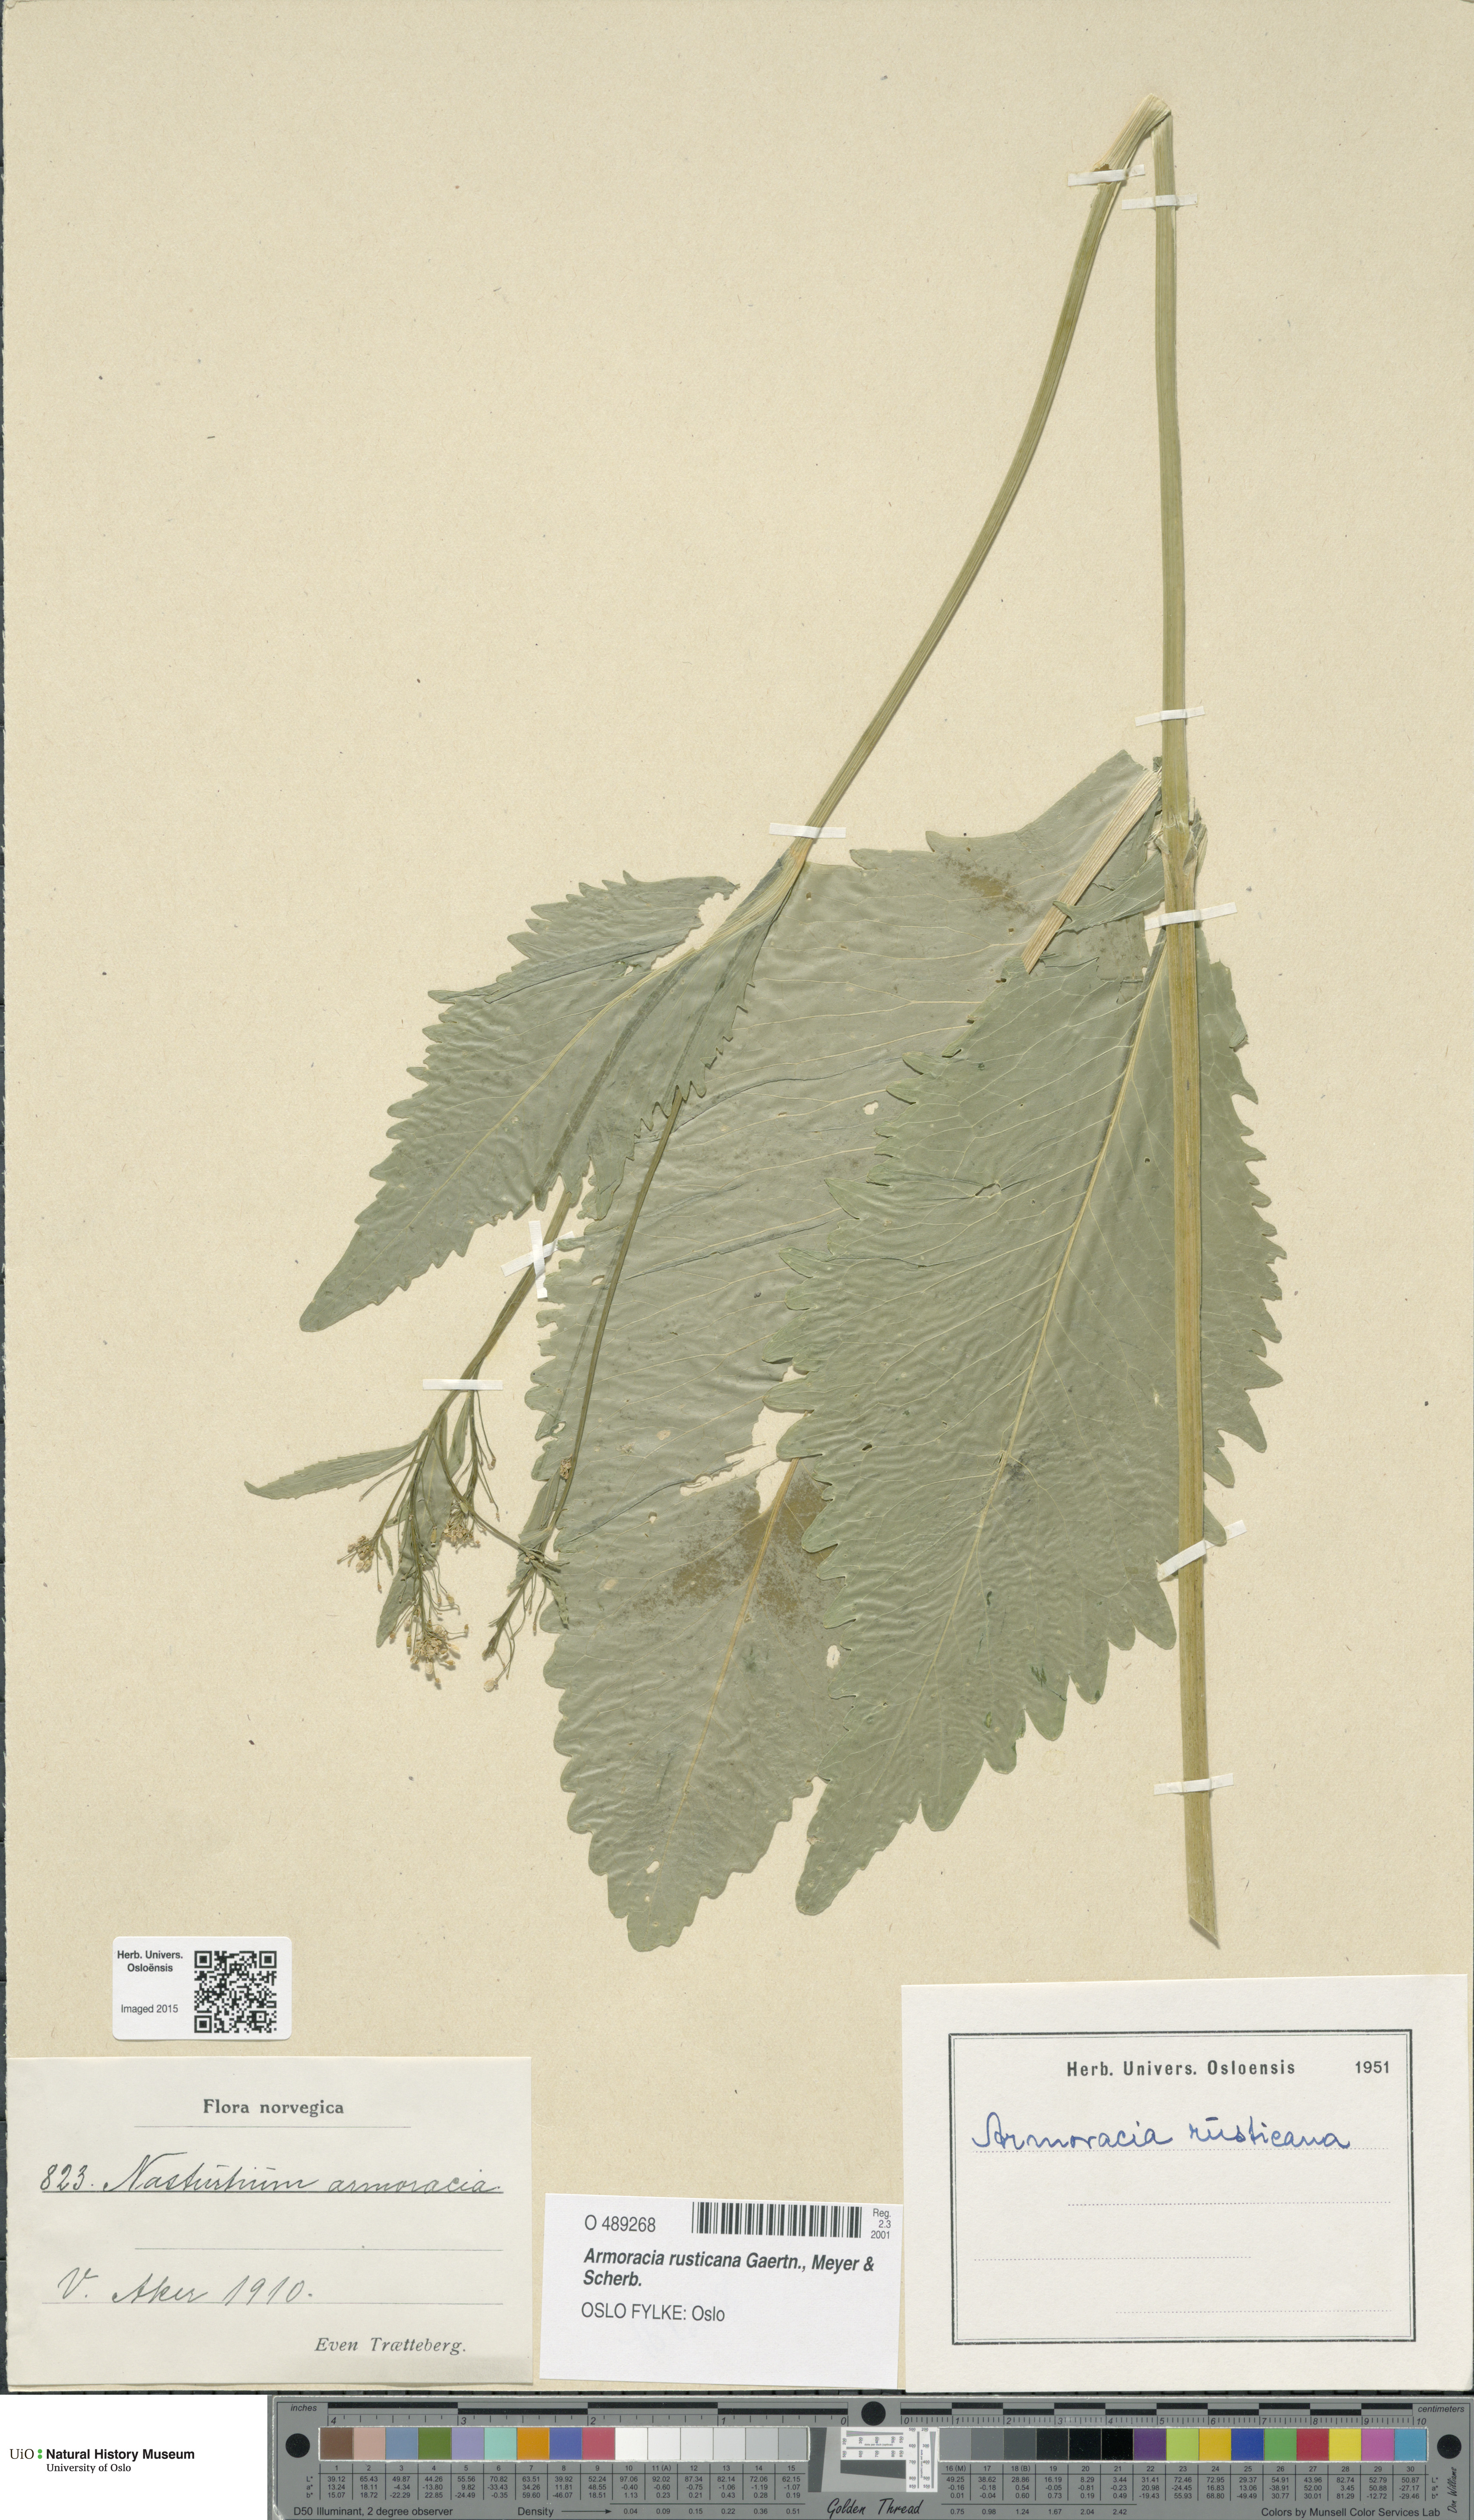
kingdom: Plantae
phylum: Tracheophyta
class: Magnoliopsida
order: Brassicales
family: Brassicaceae
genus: Armoracia
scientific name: Armoracia rusticana
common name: Horseradish
